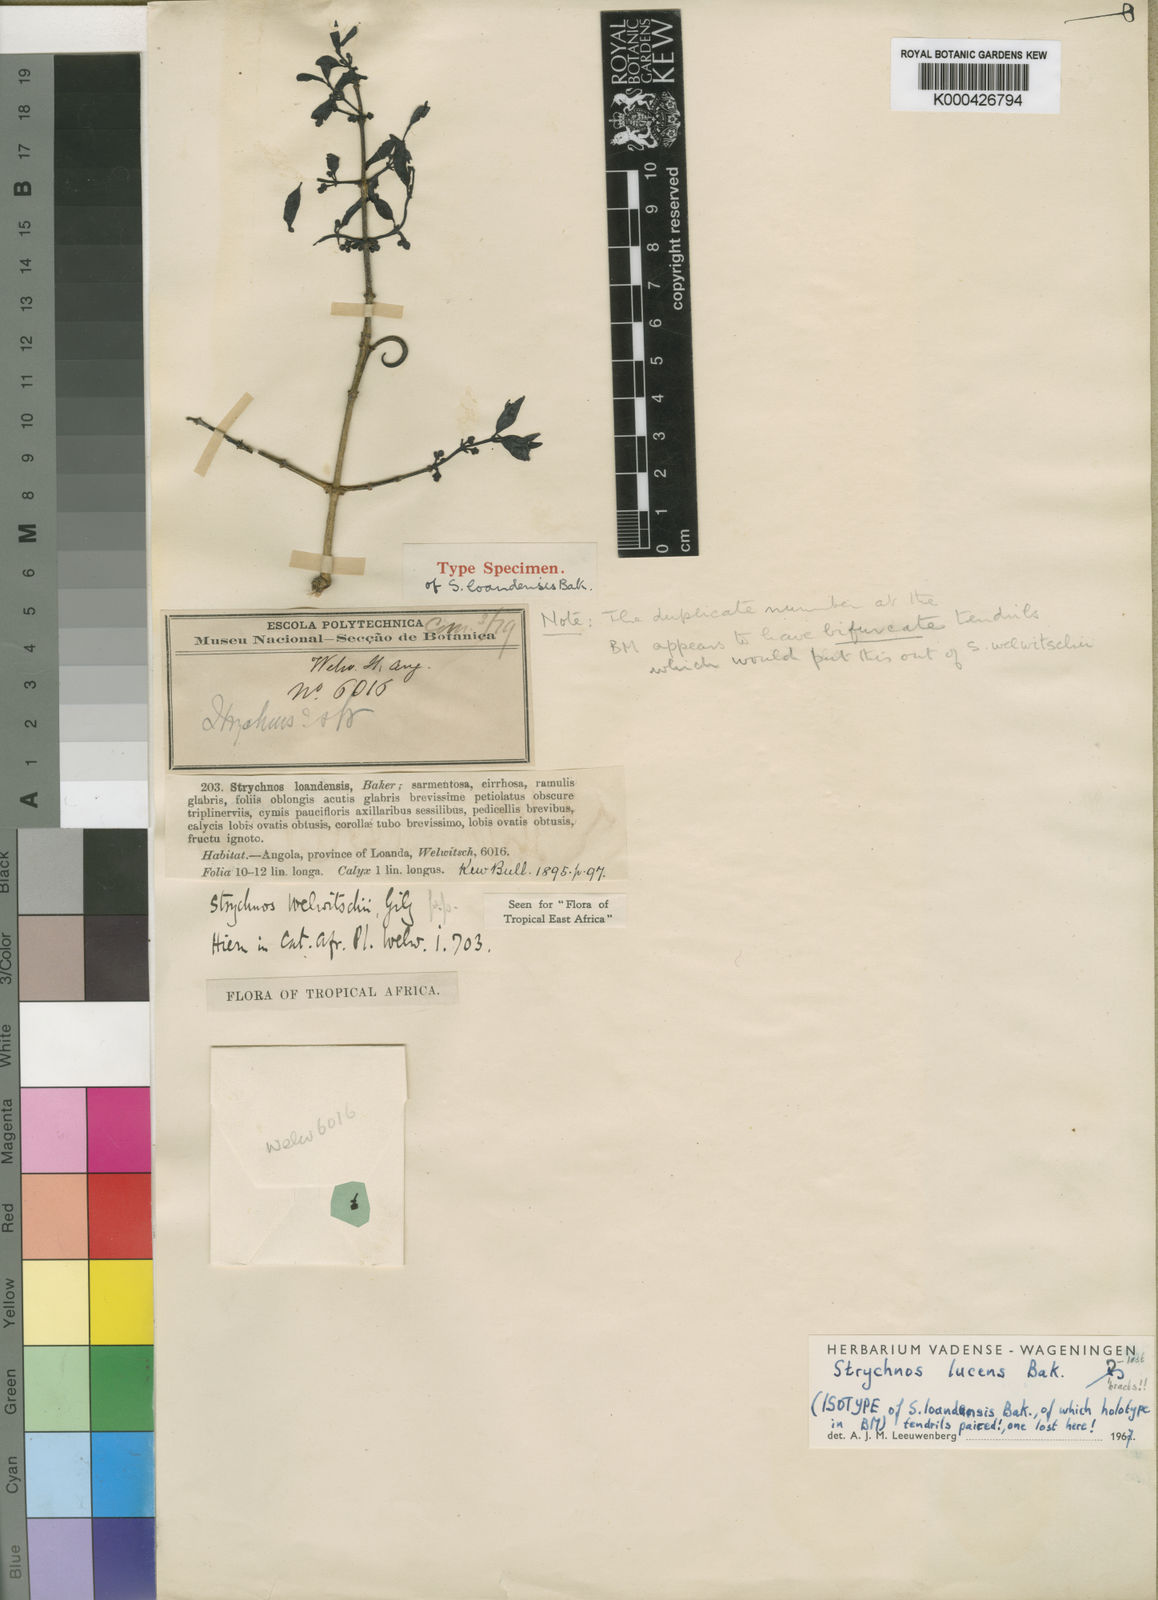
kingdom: Plantae
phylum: Tracheophyta
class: Magnoliopsida
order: Gentianales
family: Loganiaceae
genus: Strychnos
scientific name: Strychnos lucens
